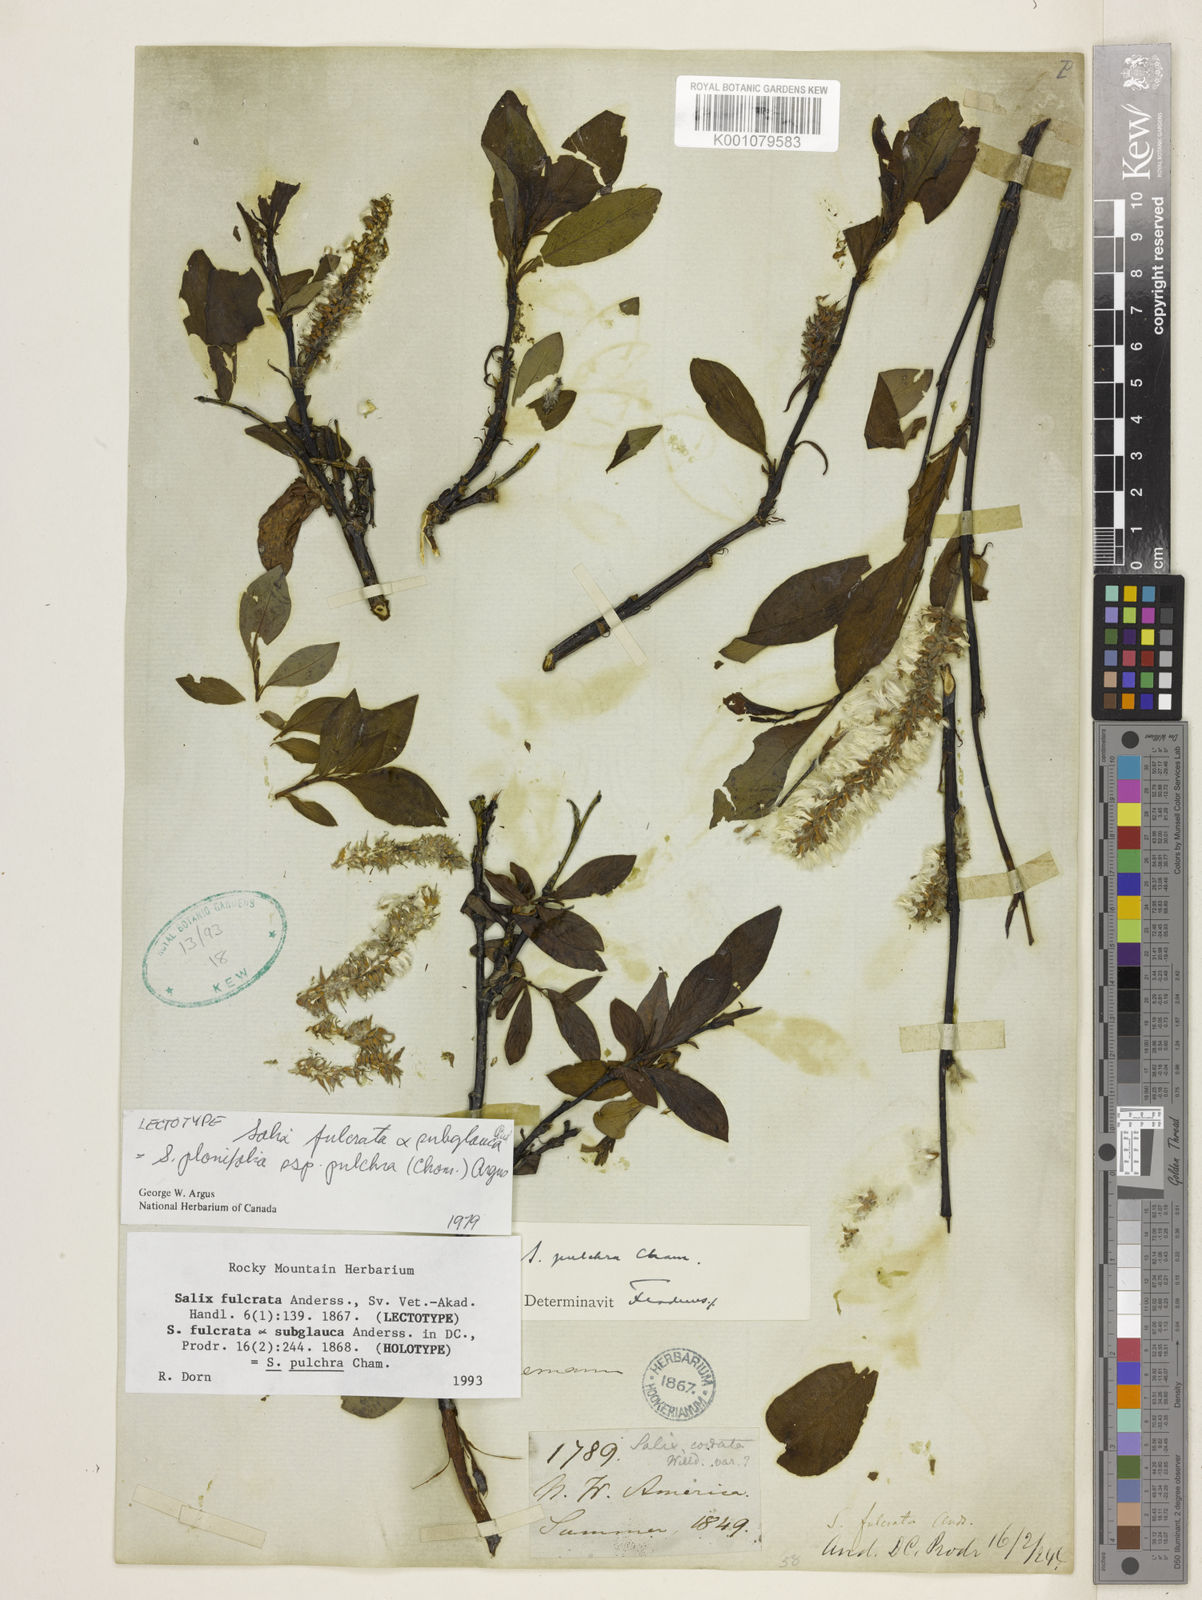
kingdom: Plantae
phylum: Tracheophyta
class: Magnoliopsida
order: Malpighiales
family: Salicaceae
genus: Salix
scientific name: Salix pulchra
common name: Diamond-leaved willow
